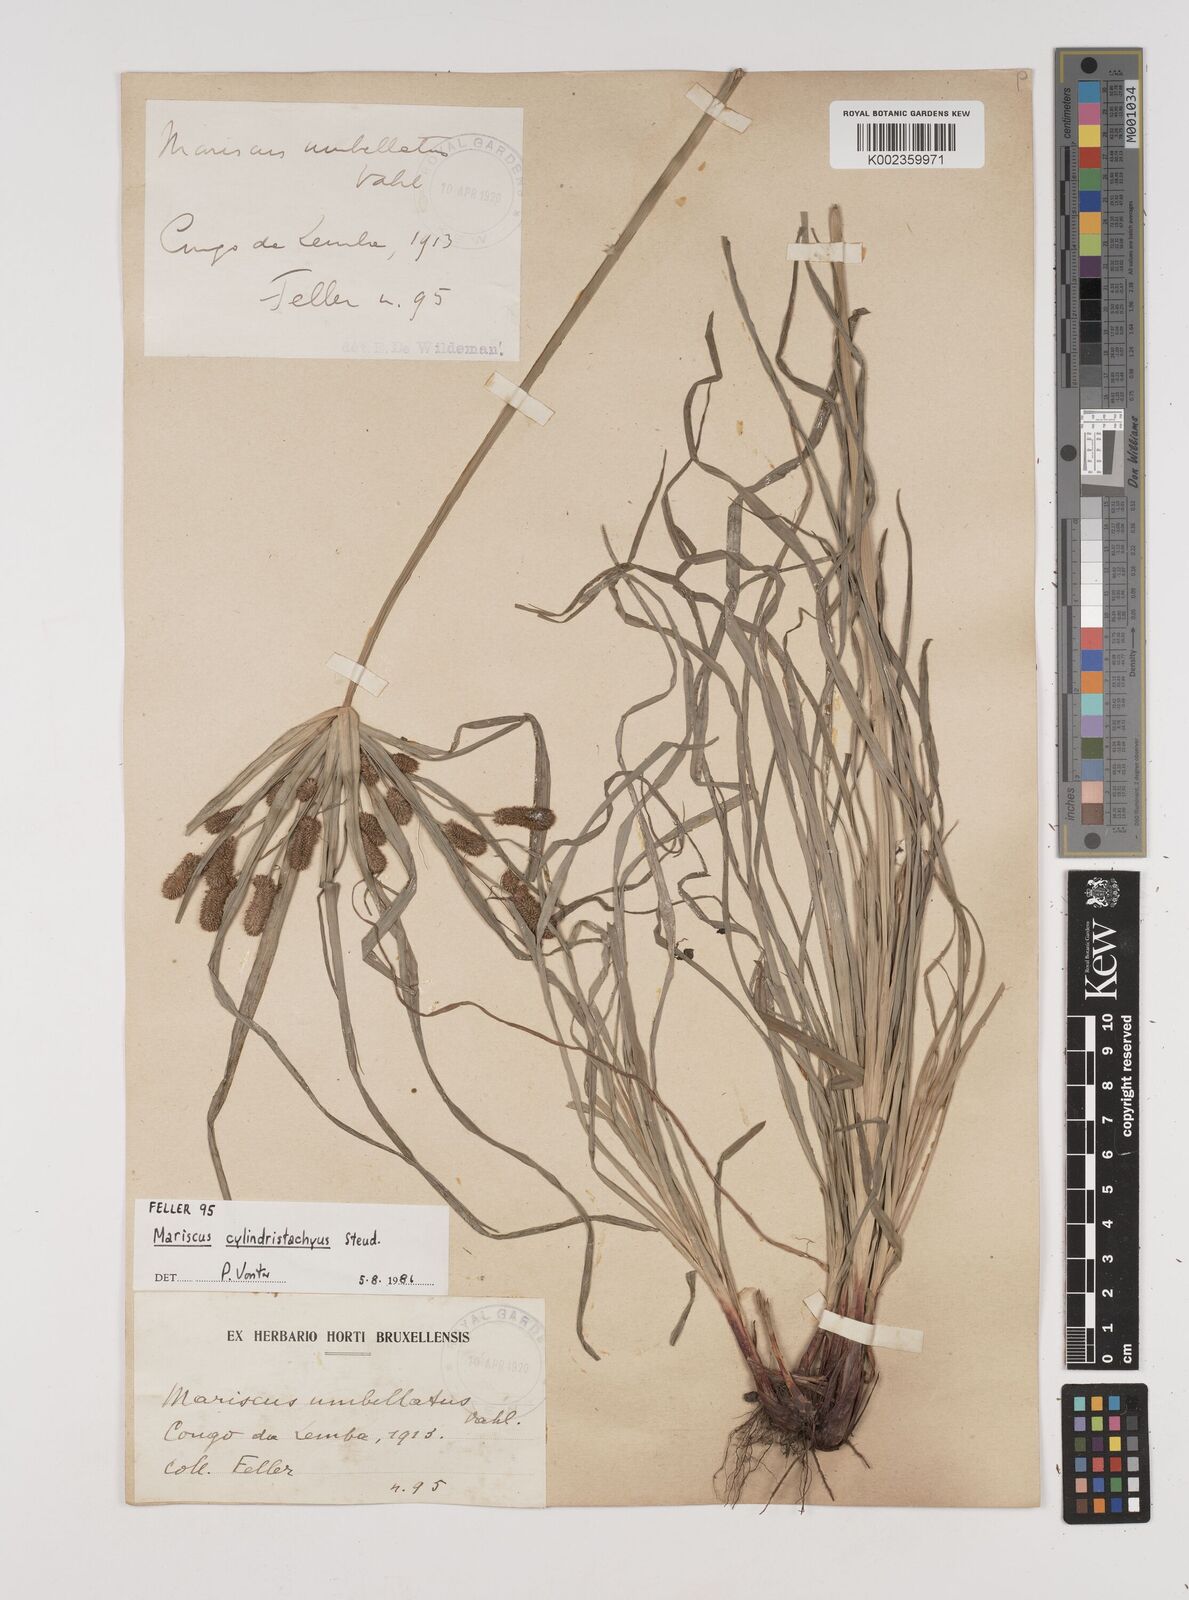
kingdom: Plantae
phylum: Tracheophyta
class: Liliopsida
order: Poales
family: Cyperaceae
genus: Cyperus
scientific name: Cyperus cyperoides
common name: Pacific island flat sedge
